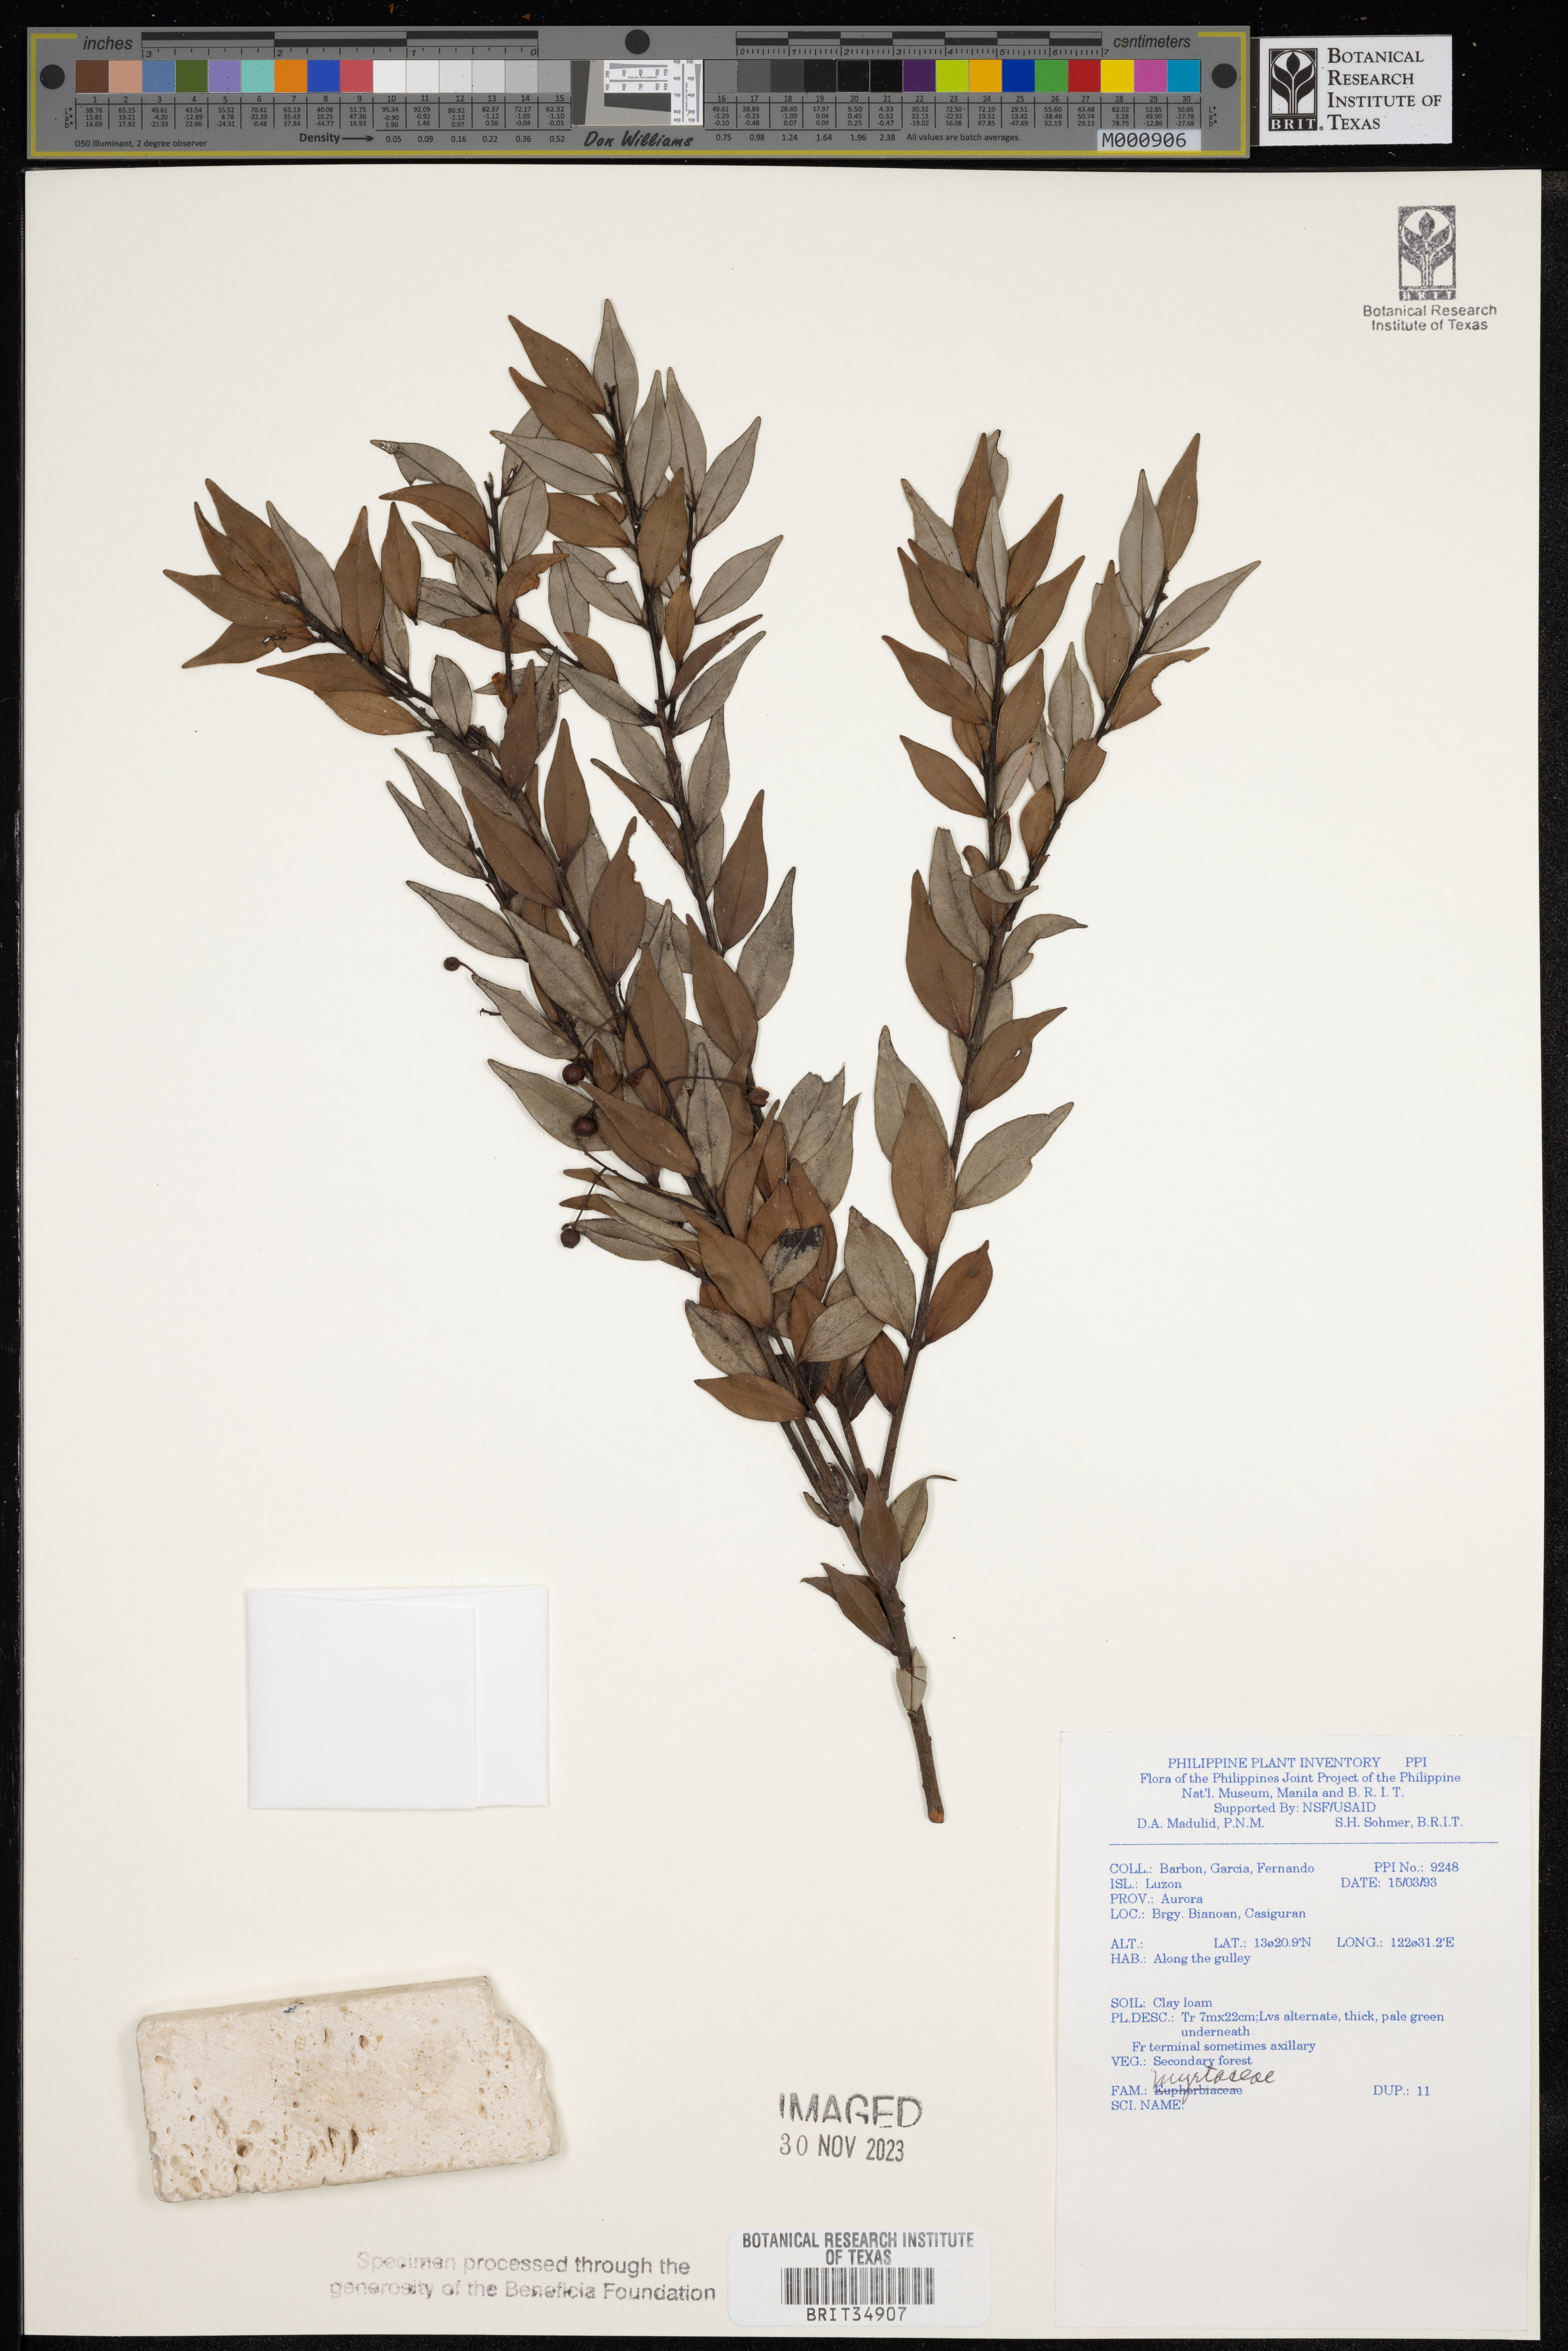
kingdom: Plantae
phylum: Tracheophyta
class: Magnoliopsida
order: Myrtales
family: Myrtaceae
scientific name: Myrtaceae
